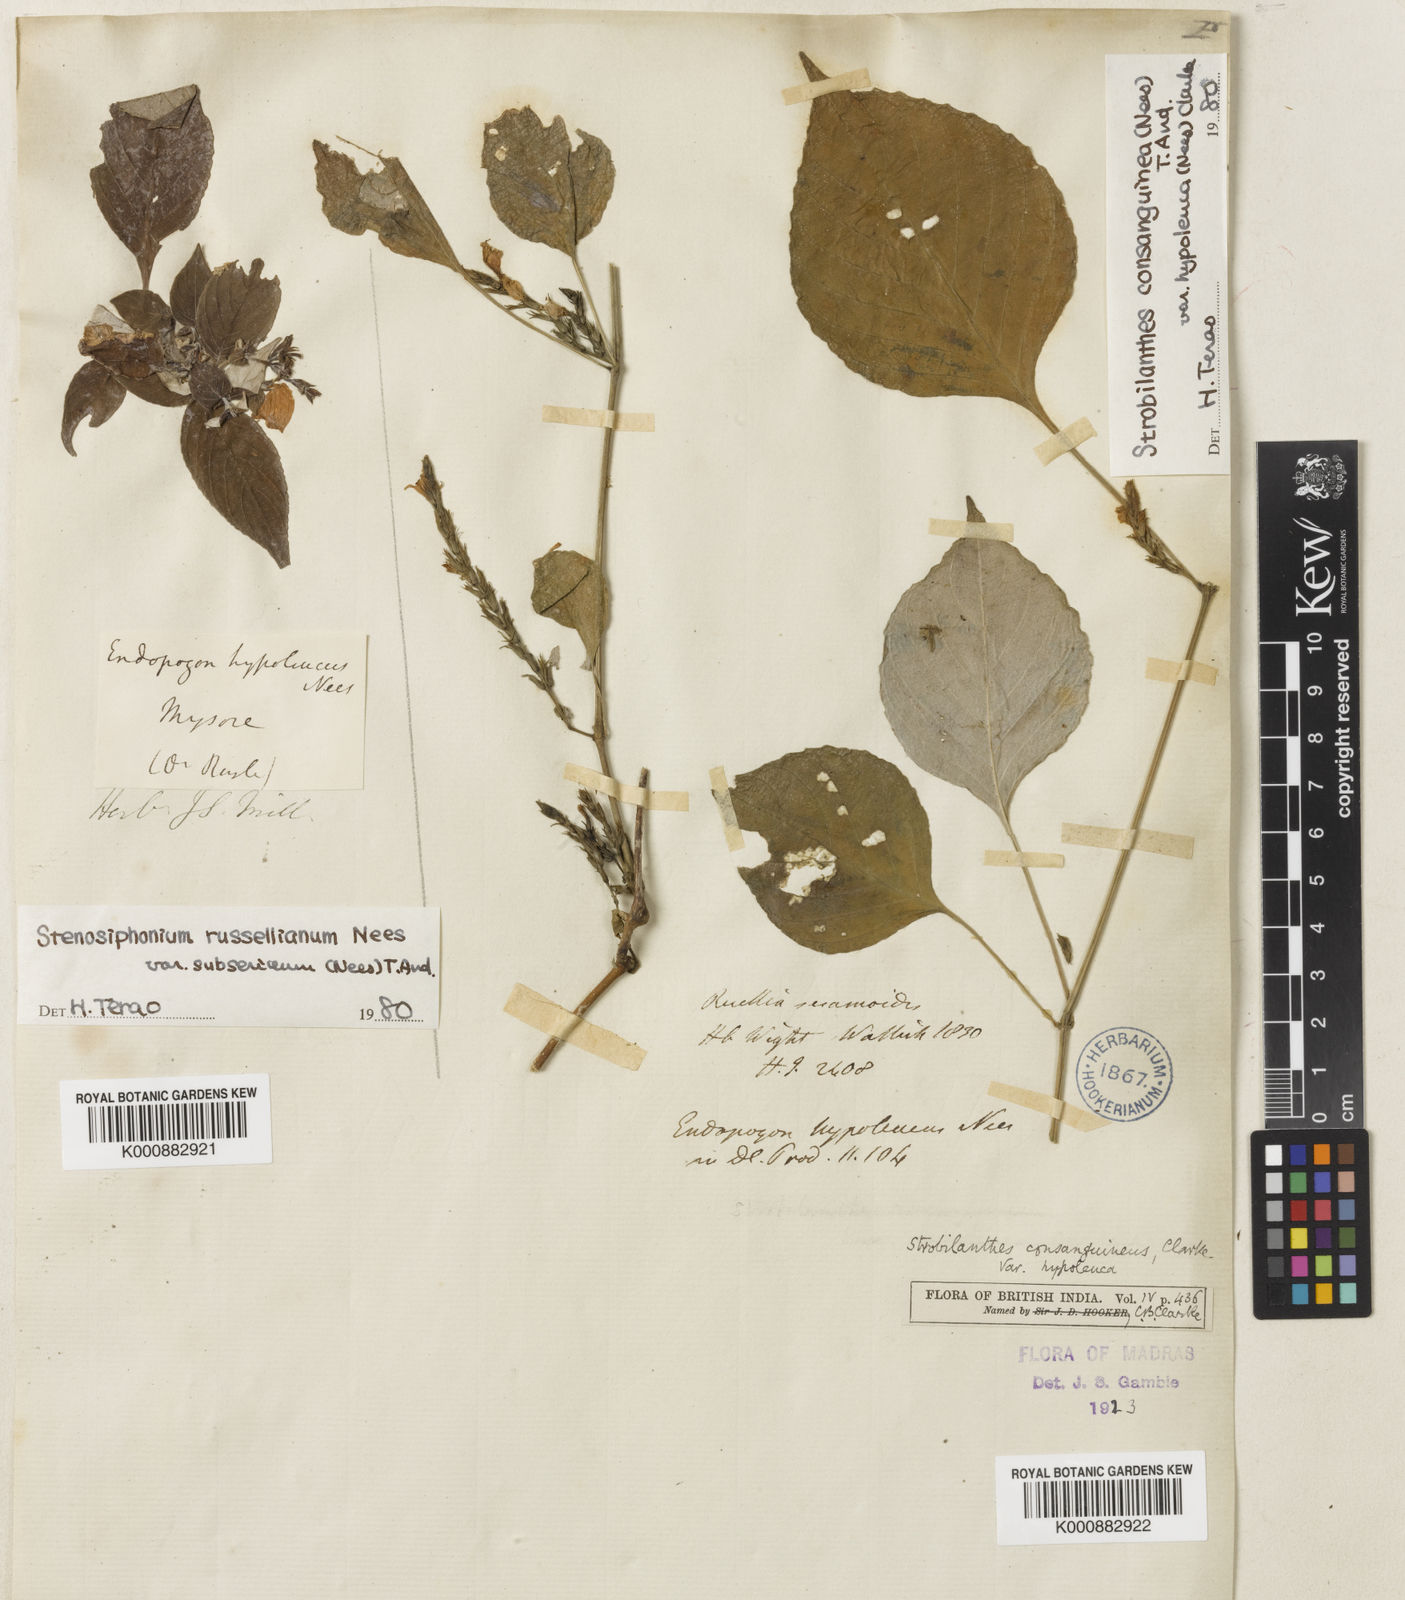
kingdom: Plantae
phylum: Tracheophyta
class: Magnoliopsida
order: Lamiales
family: Acanthaceae
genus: Strobilanthes
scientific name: Strobilanthes diandra
